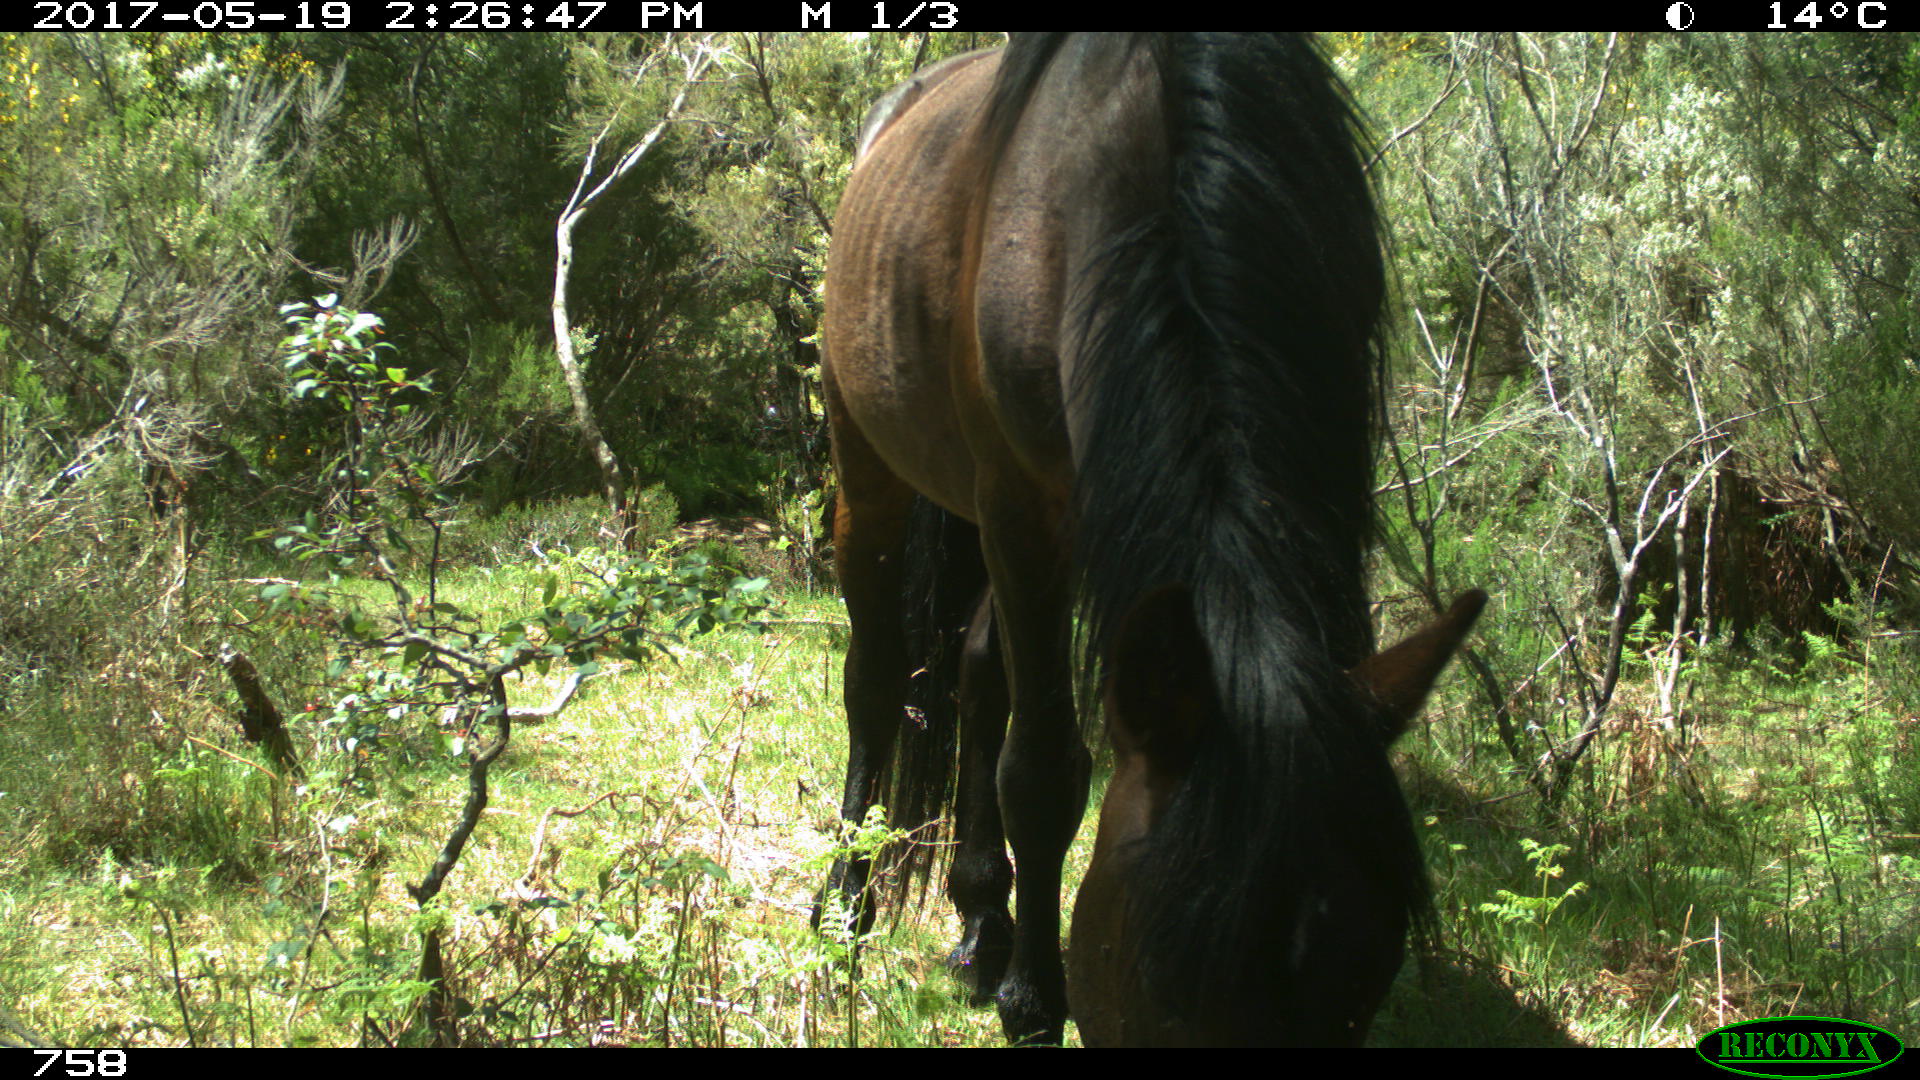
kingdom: Animalia
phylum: Chordata
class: Mammalia
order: Perissodactyla
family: Equidae
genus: Equus
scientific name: Equus caballus
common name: Horse
